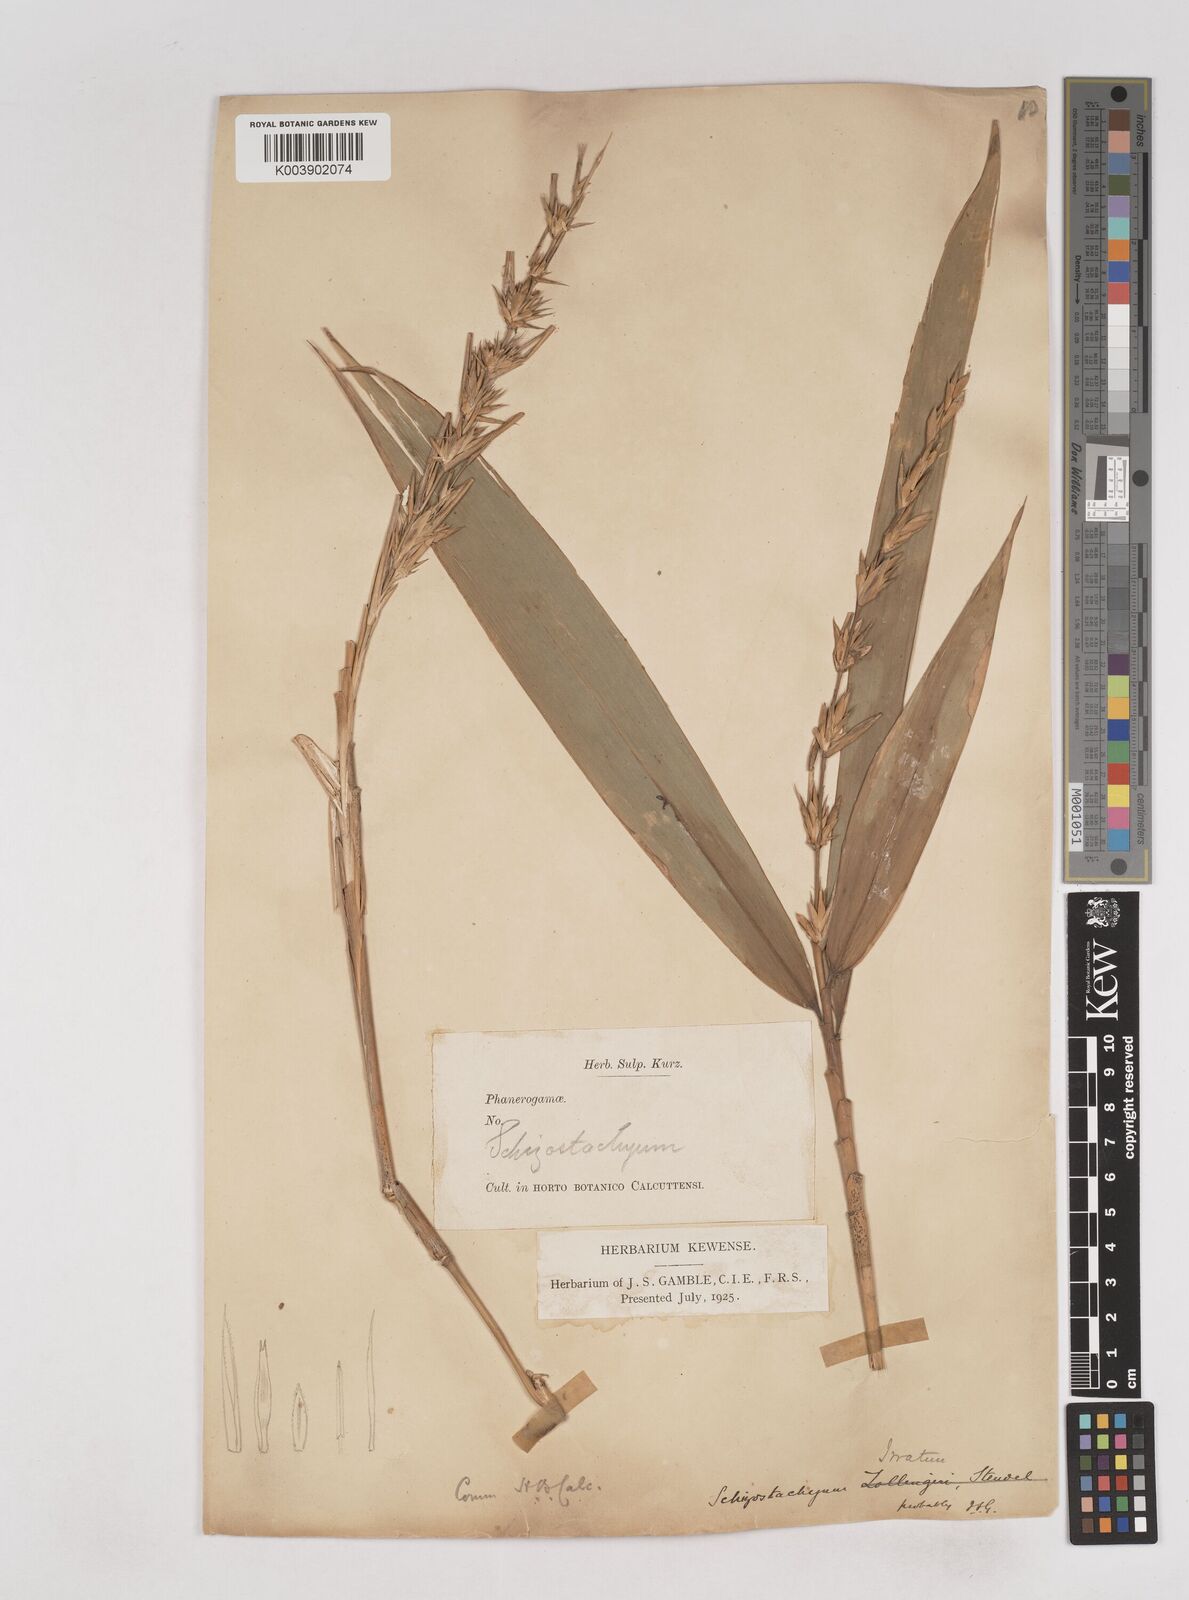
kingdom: Plantae
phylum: Tracheophyta
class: Liliopsida
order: Poales
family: Poaceae
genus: Schizostachyum
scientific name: Schizostachyum iraten
